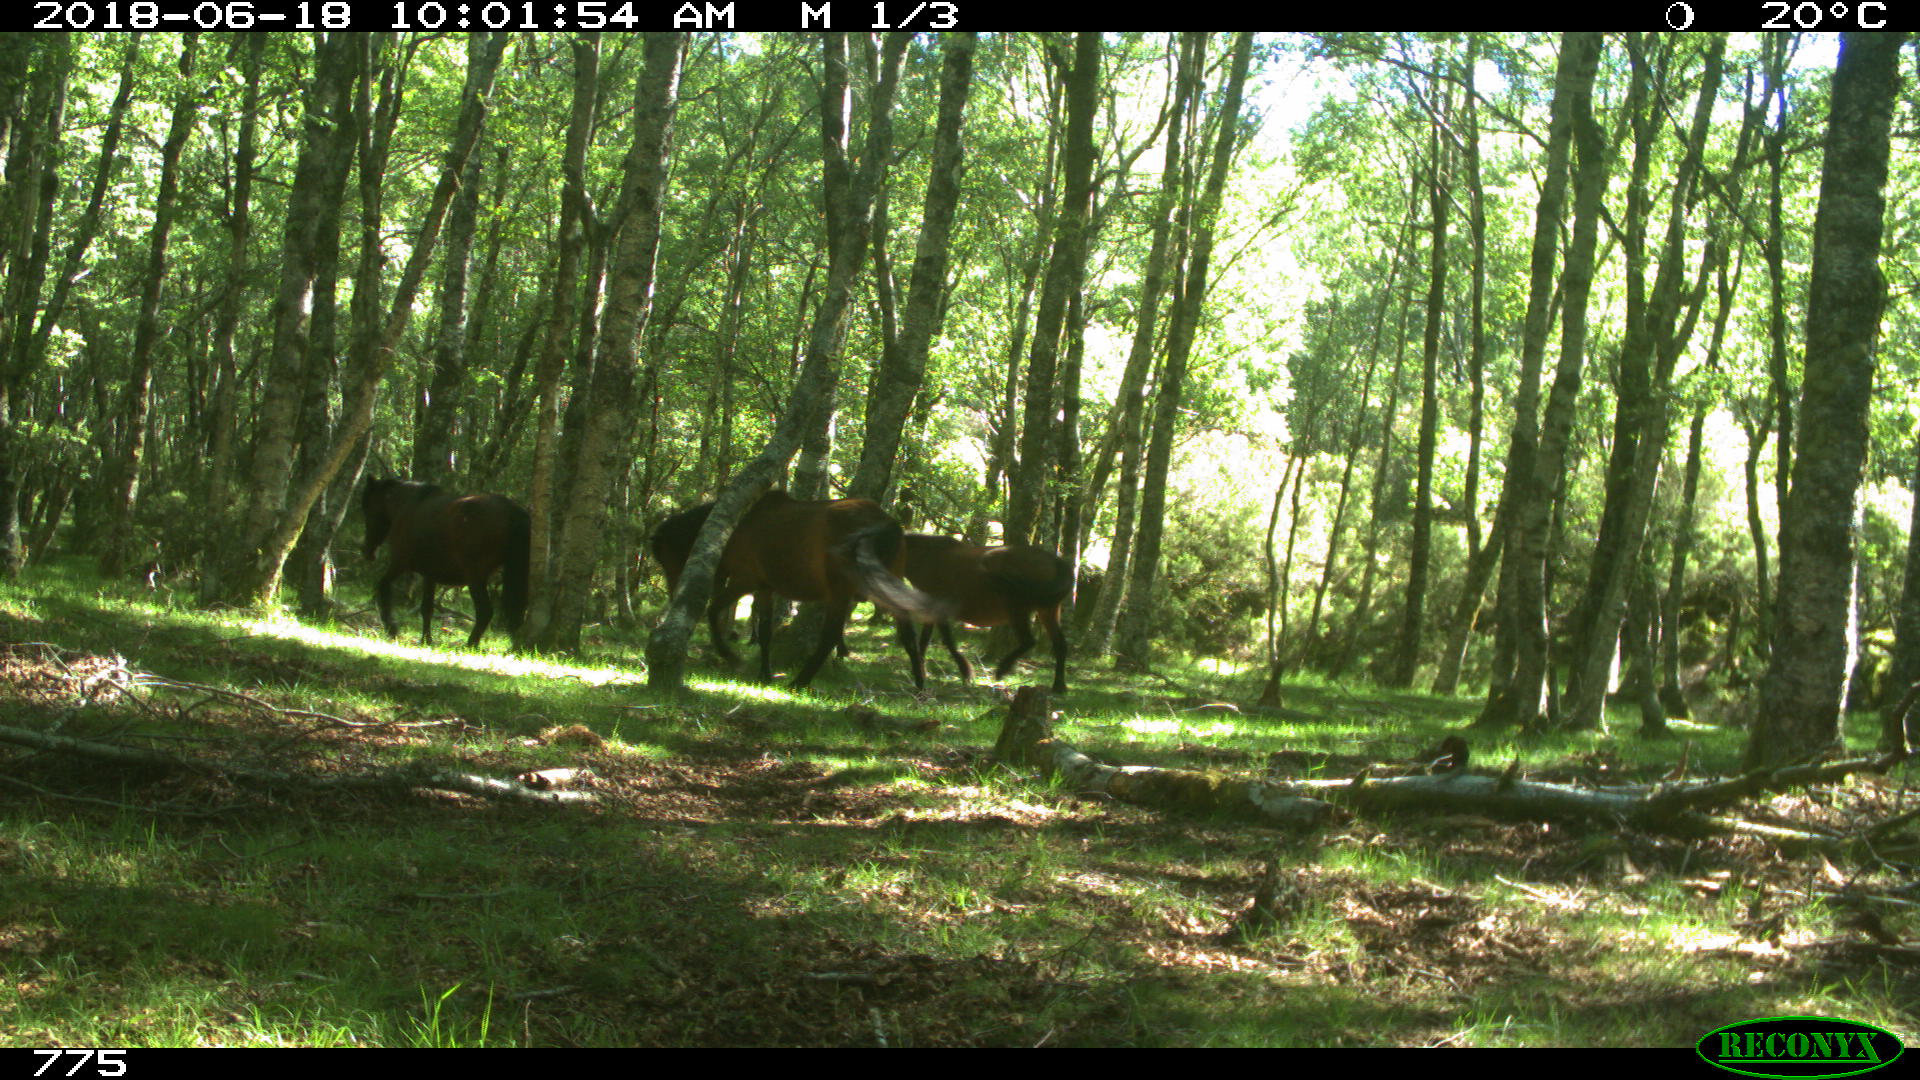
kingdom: Animalia
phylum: Chordata
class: Mammalia
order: Perissodactyla
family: Equidae
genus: Equus
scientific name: Equus caballus
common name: Horse
